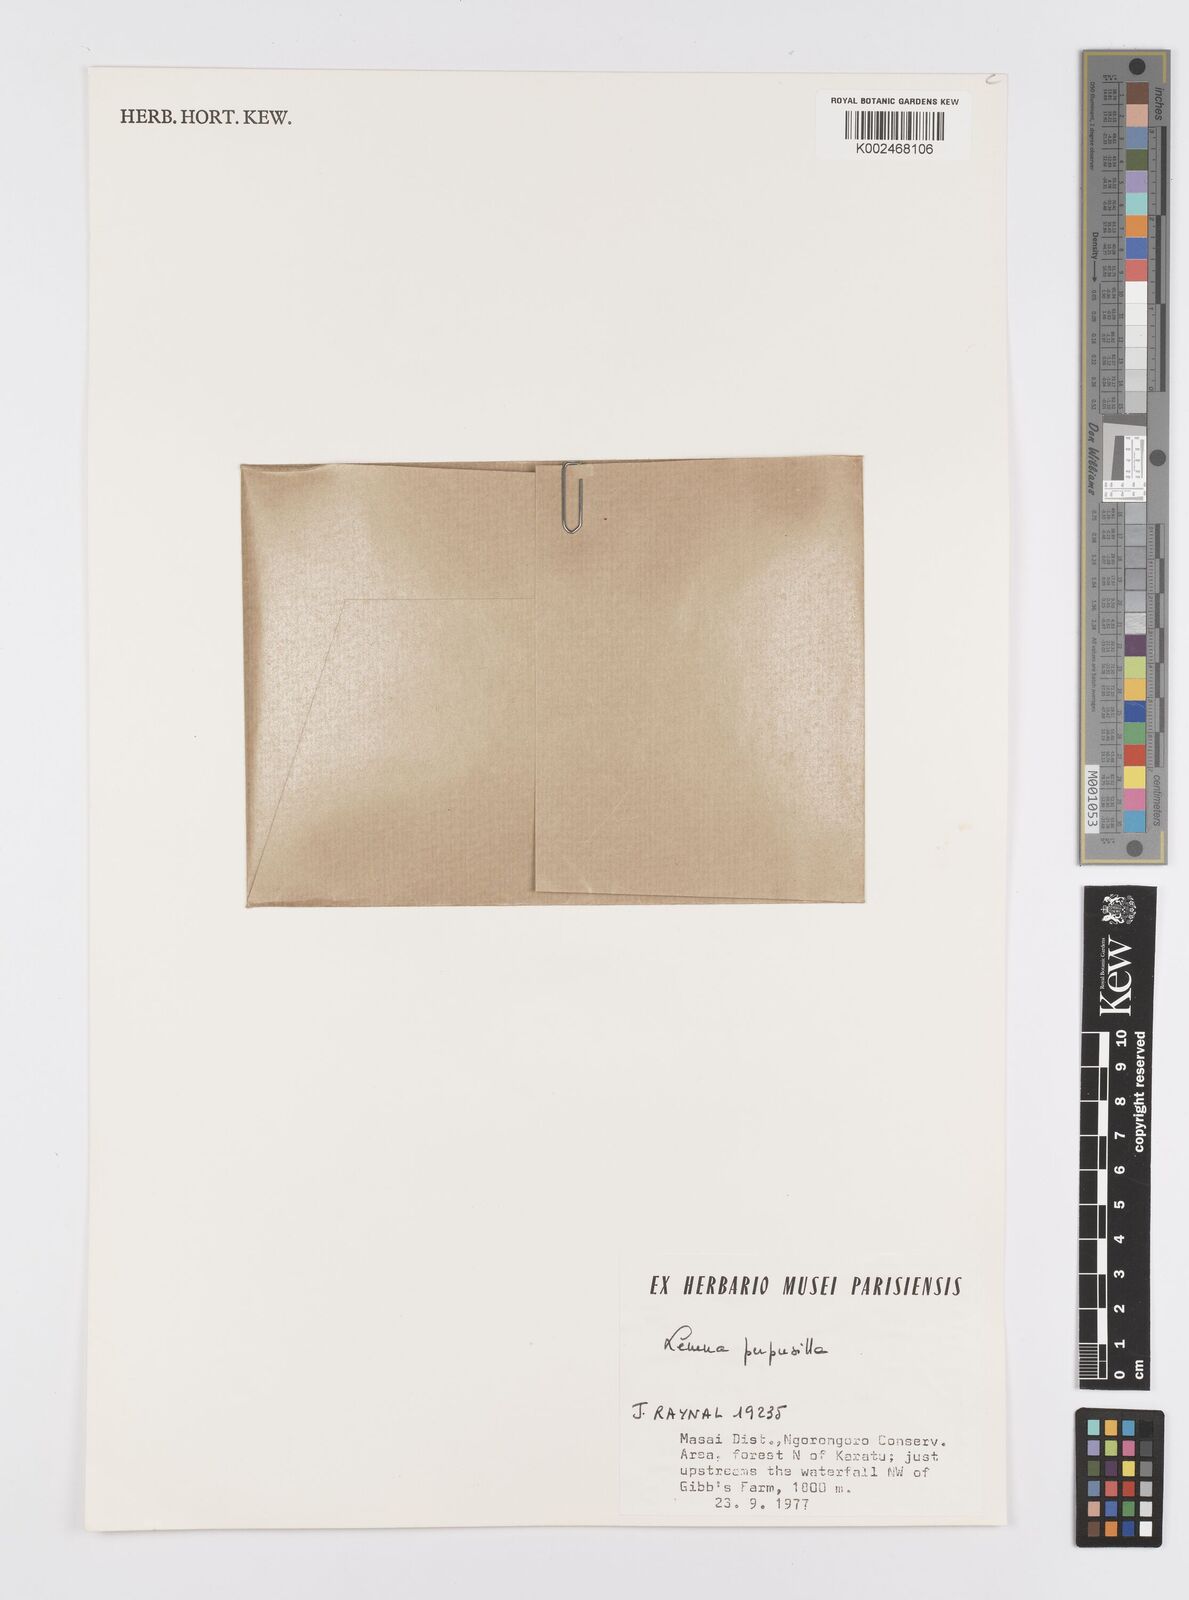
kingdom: Plantae
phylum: Tracheophyta
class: Liliopsida
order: Alismatales
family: Araceae
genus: Lemna
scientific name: Lemna perpusilla
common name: Duckweed
